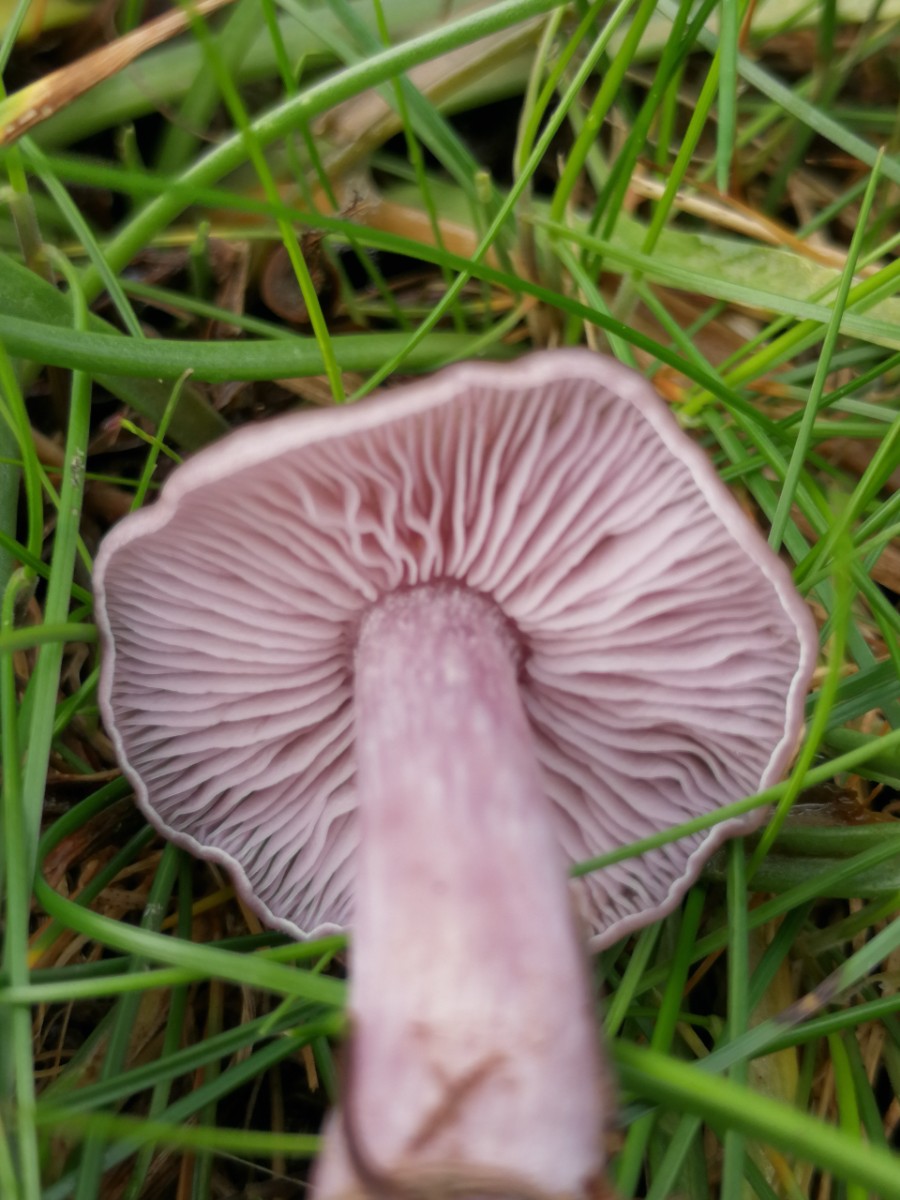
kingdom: Fungi
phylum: Basidiomycota
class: Agaricomycetes
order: Agaricales
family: Tricholomataceae
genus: Lepista
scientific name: Lepista
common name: hekseringshat
